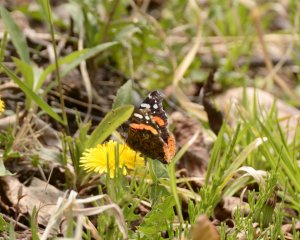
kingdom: Animalia
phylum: Arthropoda
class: Insecta
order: Lepidoptera
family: Nymphalidae
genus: Vanessa
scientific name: Vanessa atalanta
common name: Red Admiral
